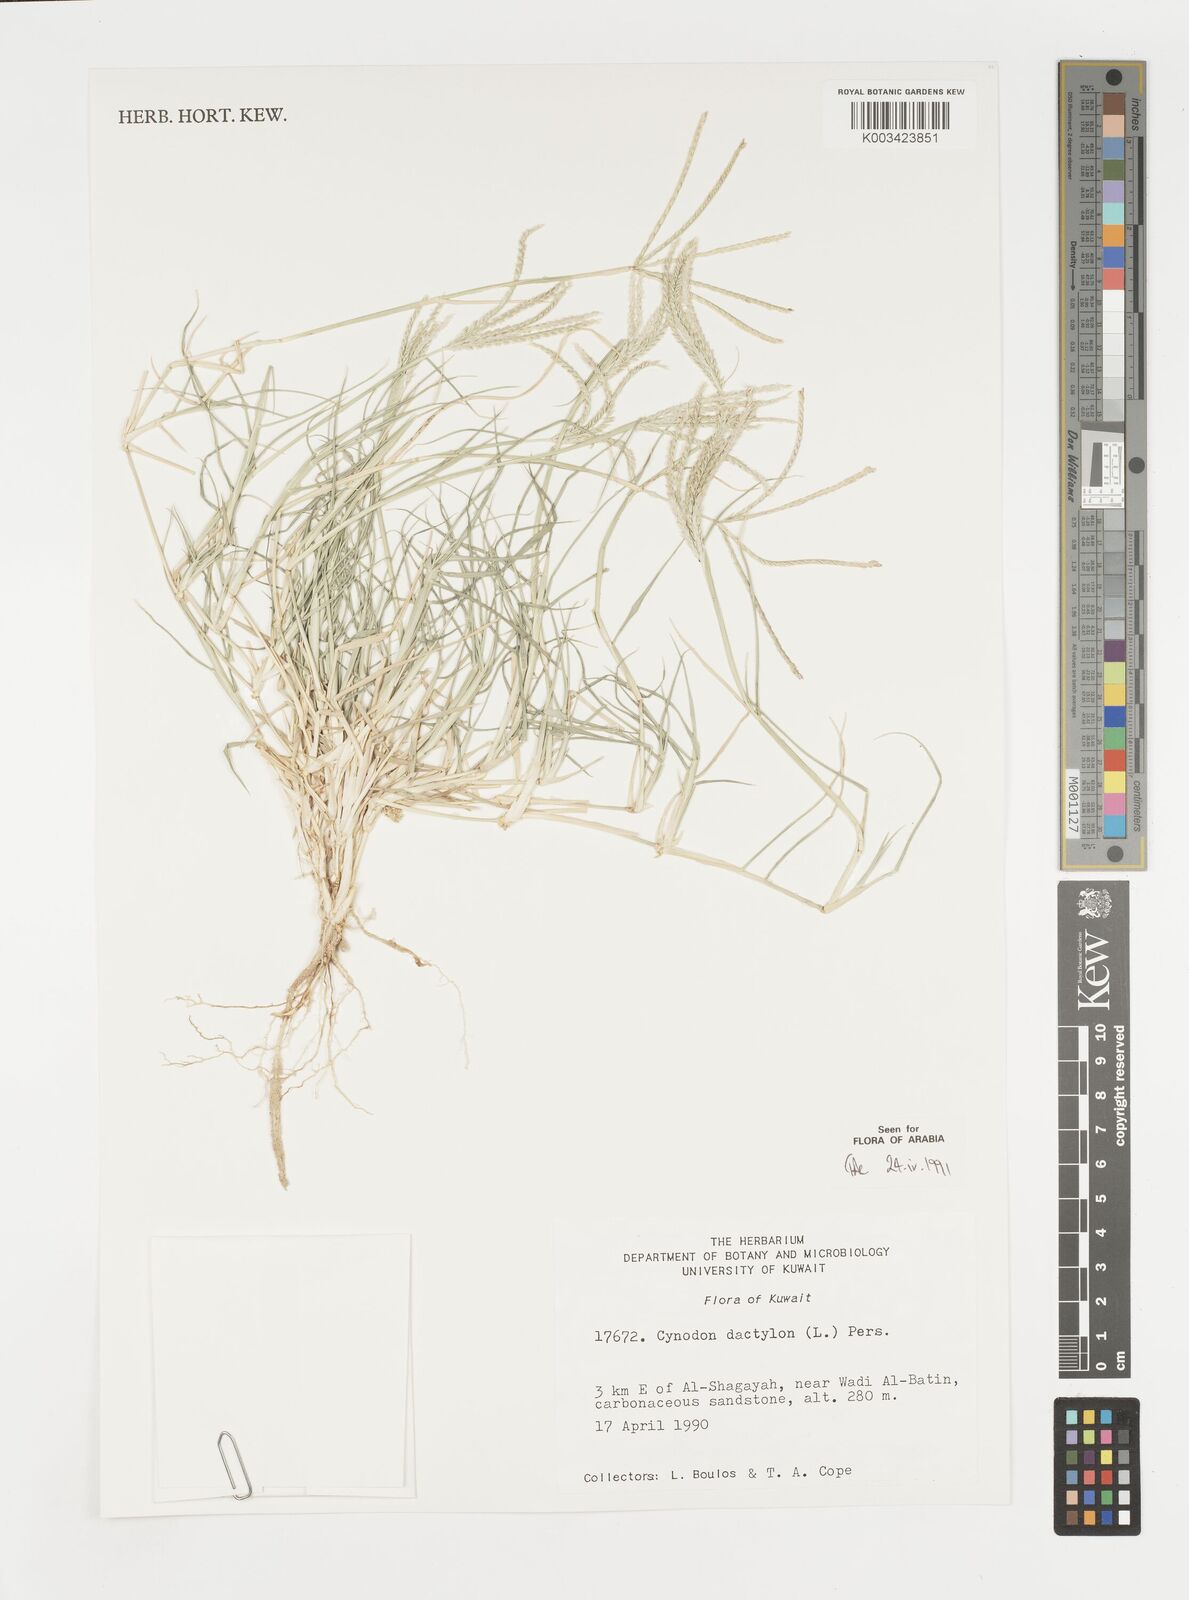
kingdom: Plantae
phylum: Tracheophyta
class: Liliopsida
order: Poales
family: Poaceae
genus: Cynodon
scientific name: Cynodon dactylon
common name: Bermuda grass
